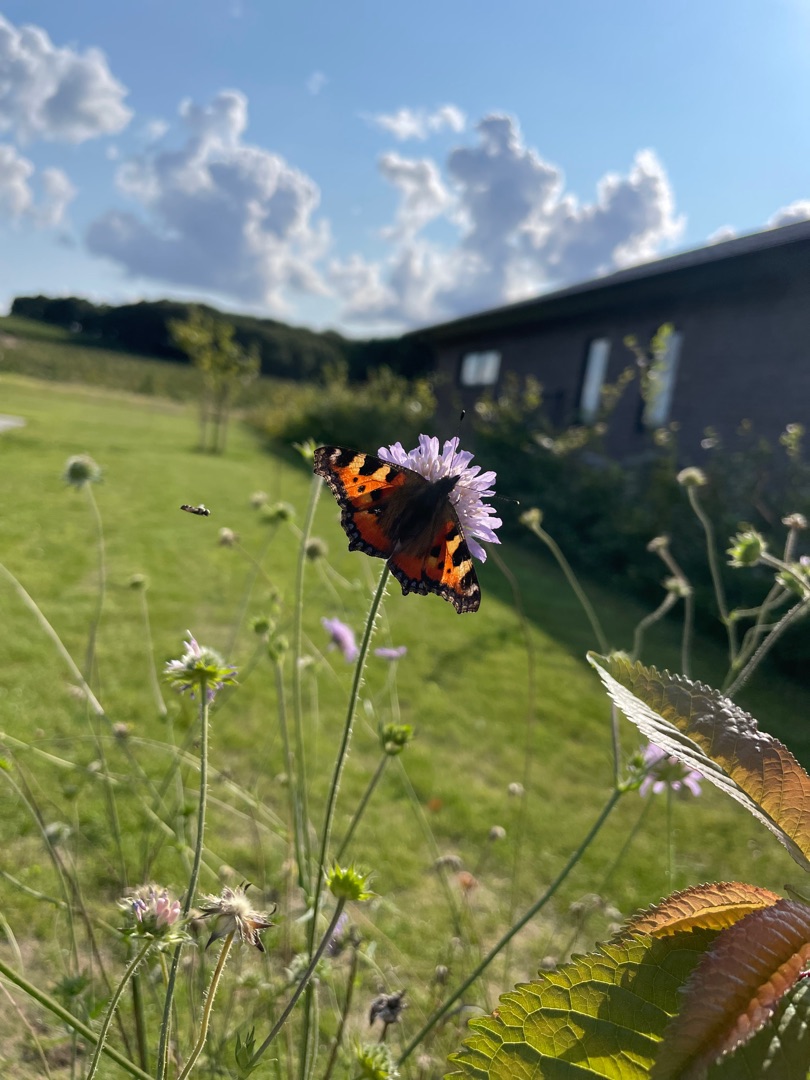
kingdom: Animalia
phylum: Arthropoda
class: Insecta
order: Lepidoptera
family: Nymphalidae
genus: Aglais
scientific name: Aglais urticae
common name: Nældens takvinge
